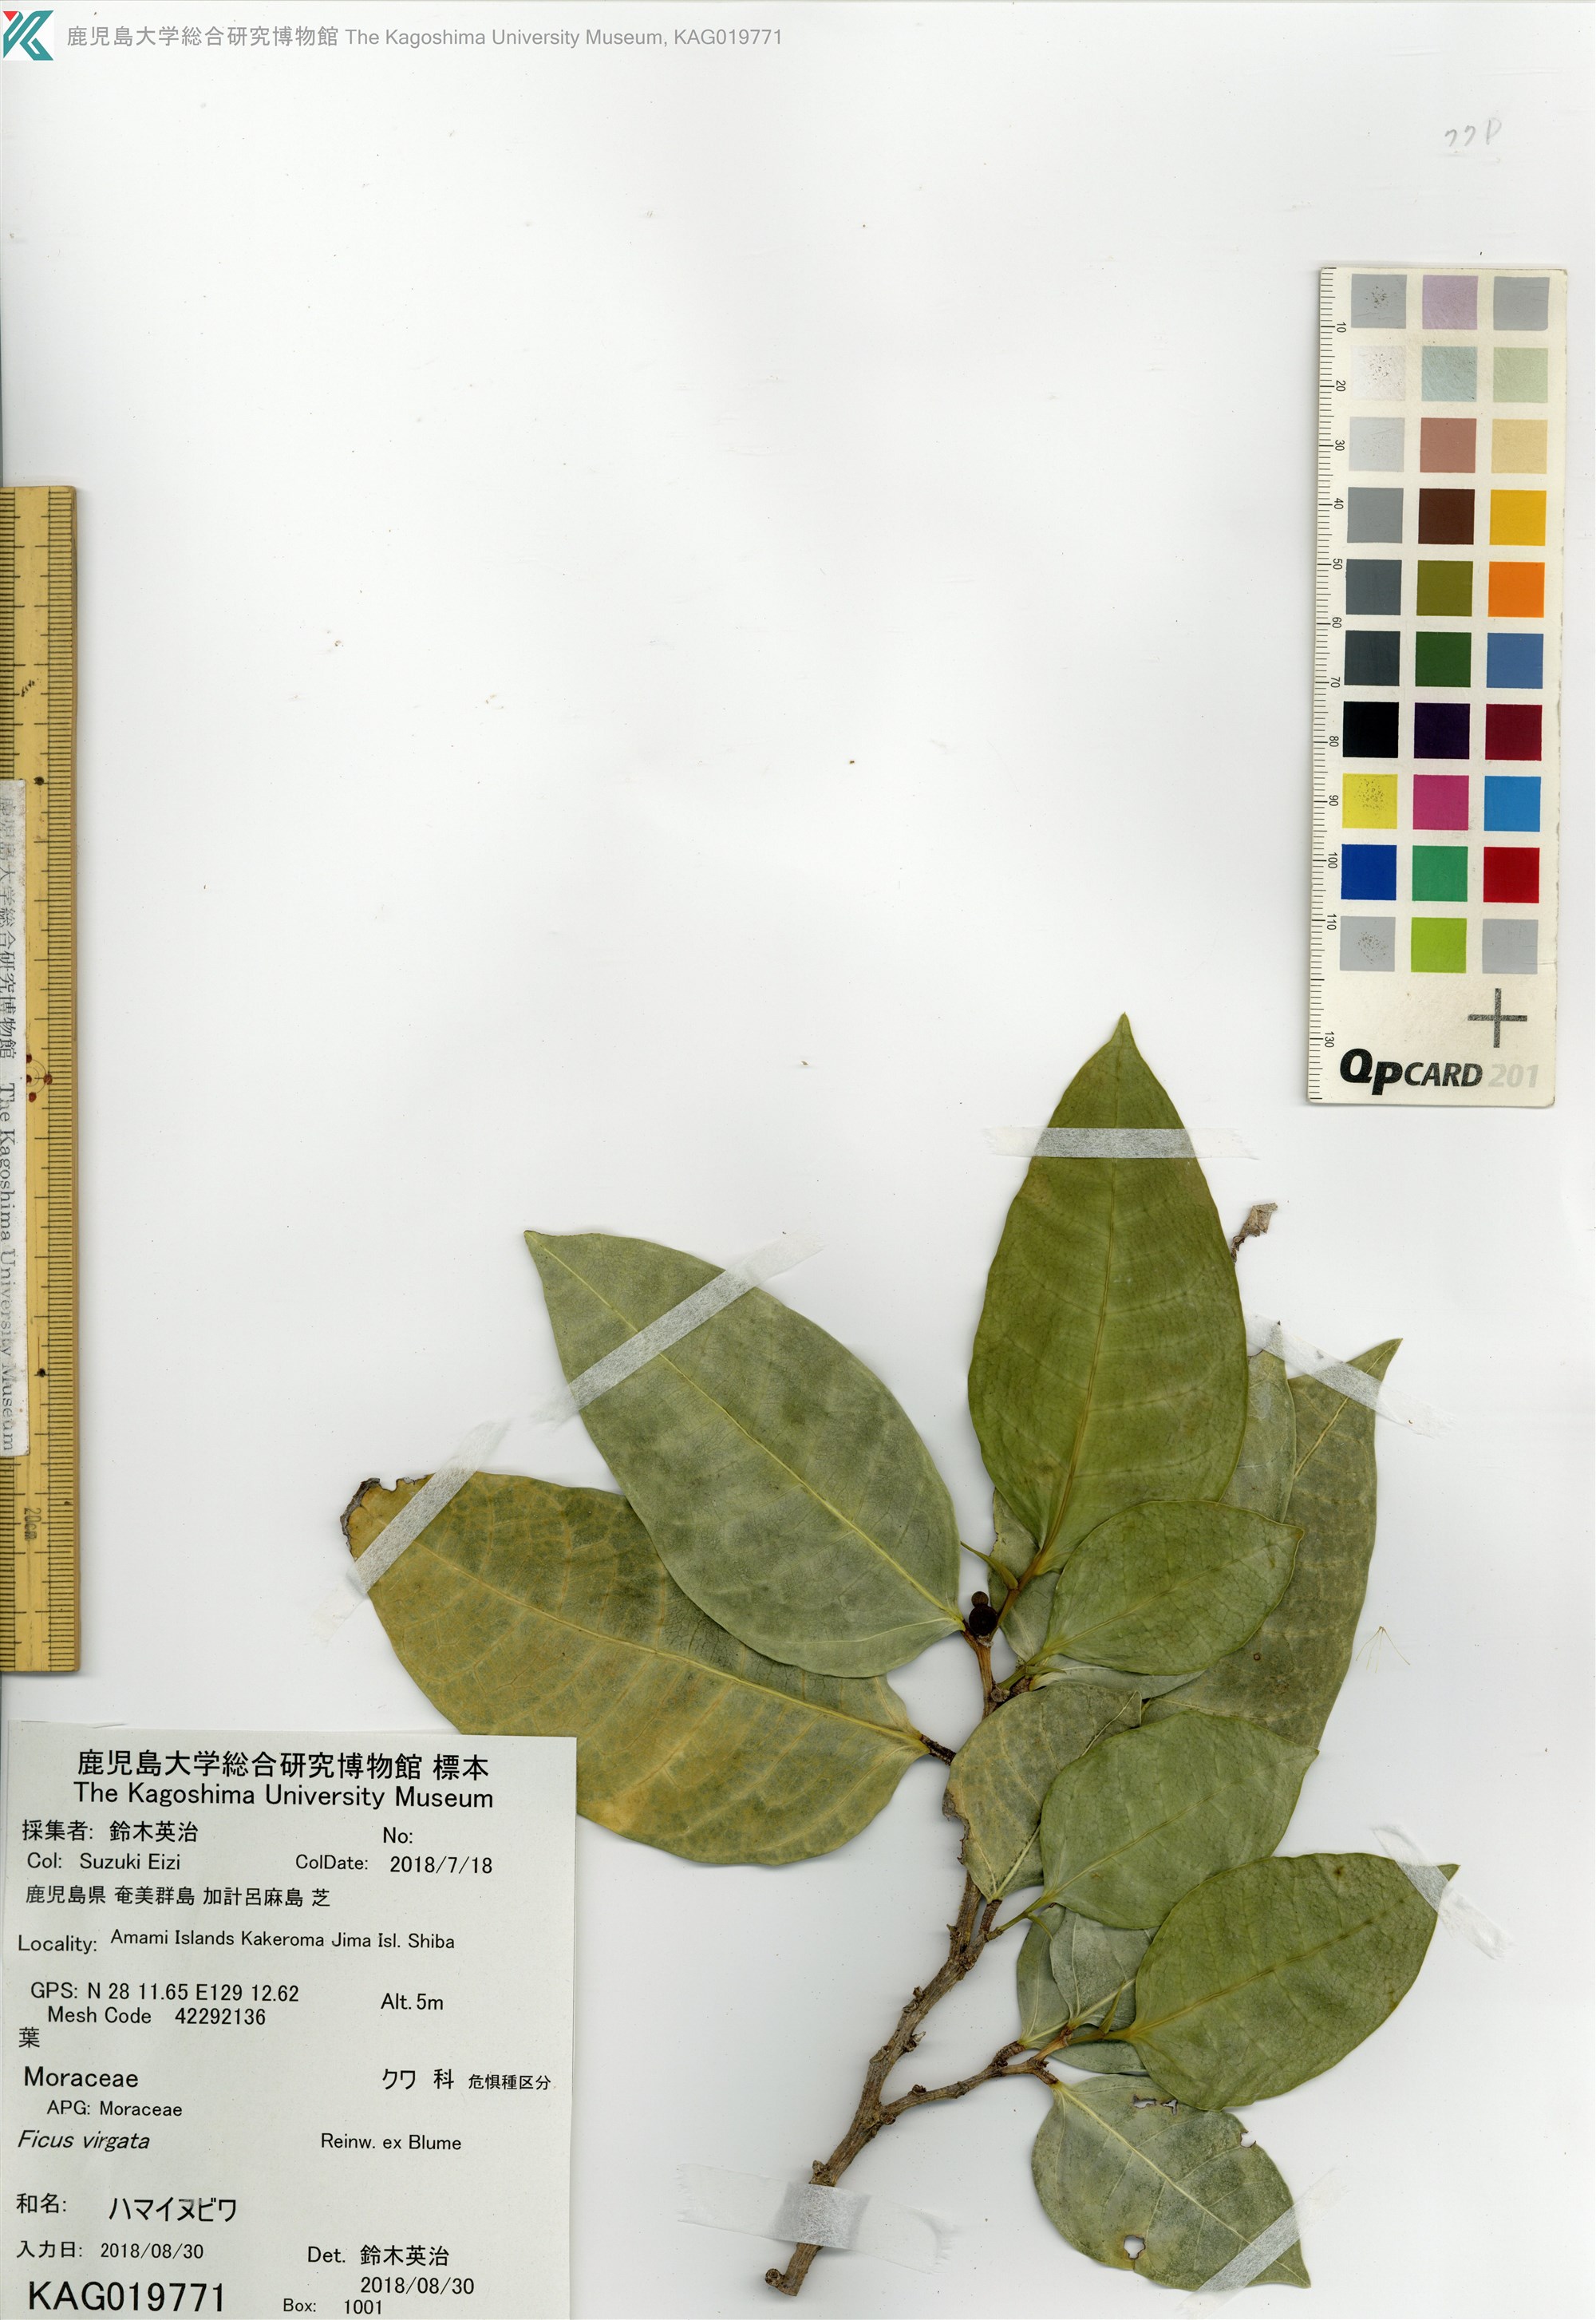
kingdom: Plantae
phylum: Tracheophyta
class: Magnoliopsida
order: Rosales
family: Moraceae
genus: Ficus
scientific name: Ficus virgata
